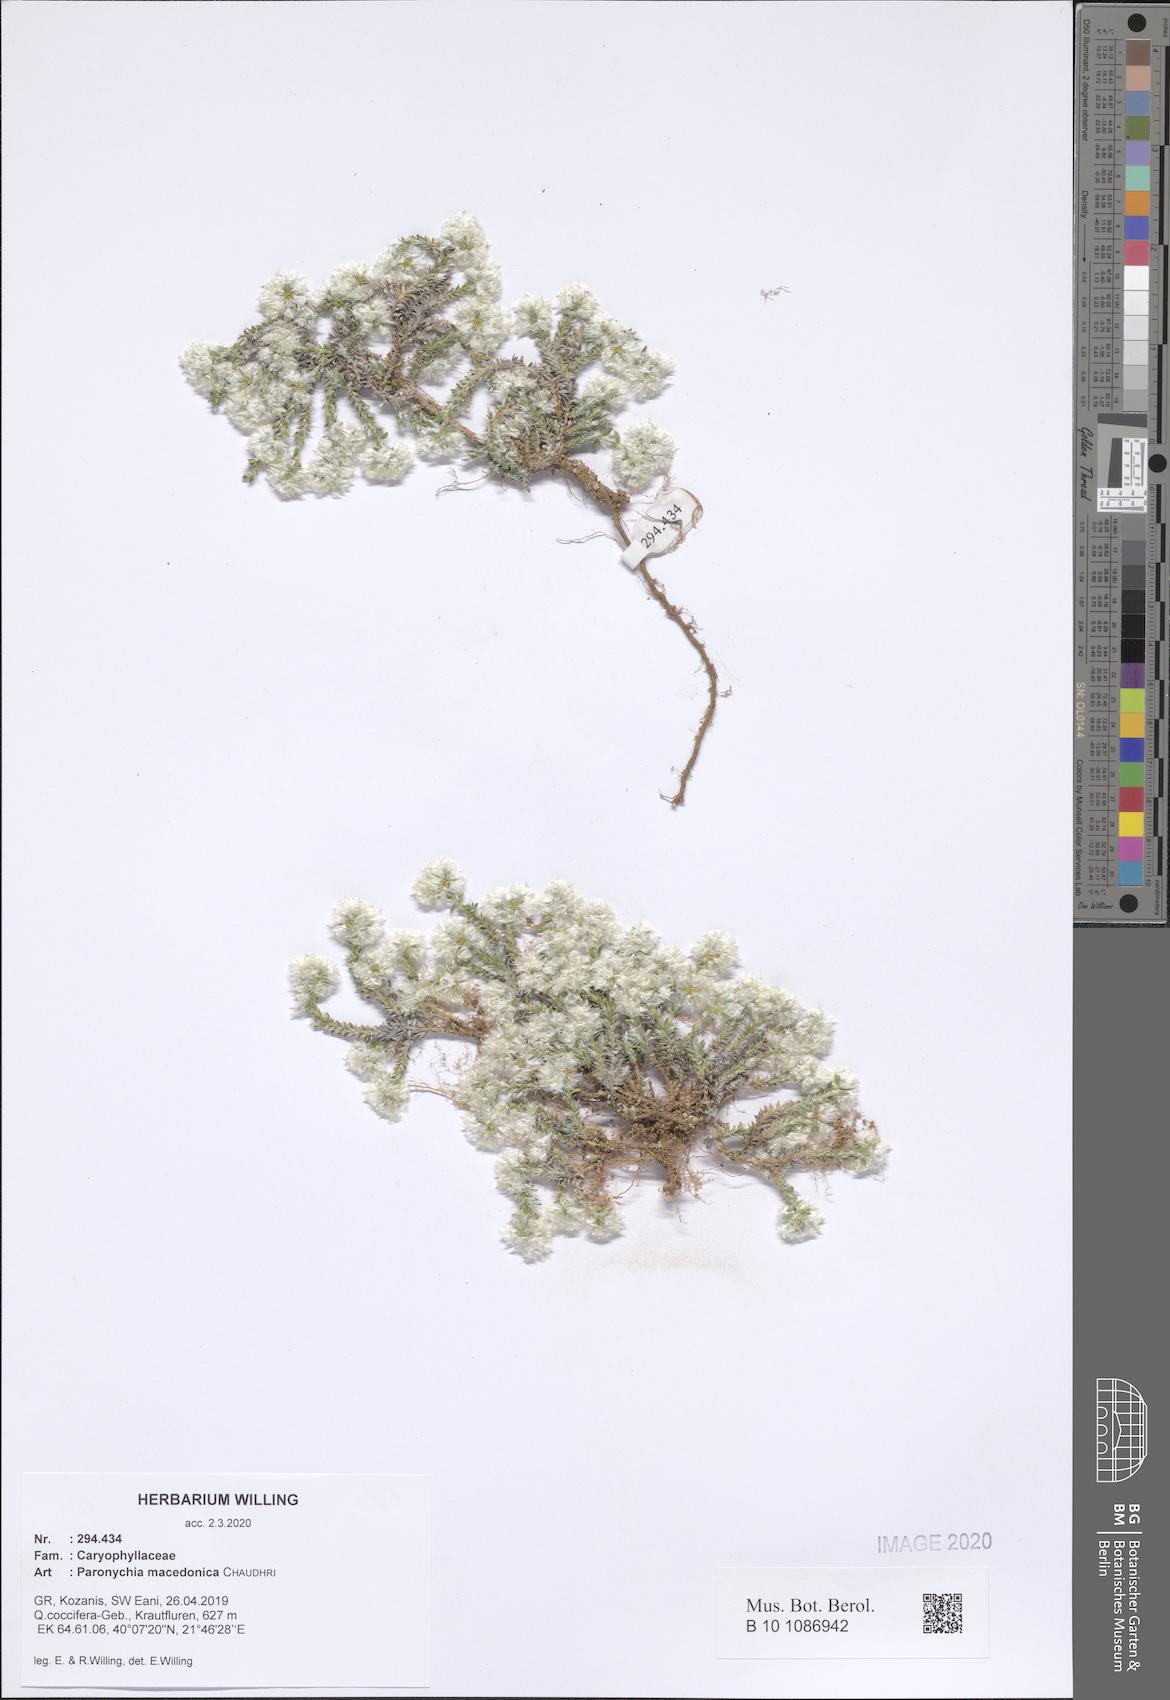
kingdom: Plantae
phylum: Tracheophyta
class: Magnoliopsida
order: Caryophyllales
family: Caryophyllaceae
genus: Paronychia
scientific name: Paronychia macedonica
